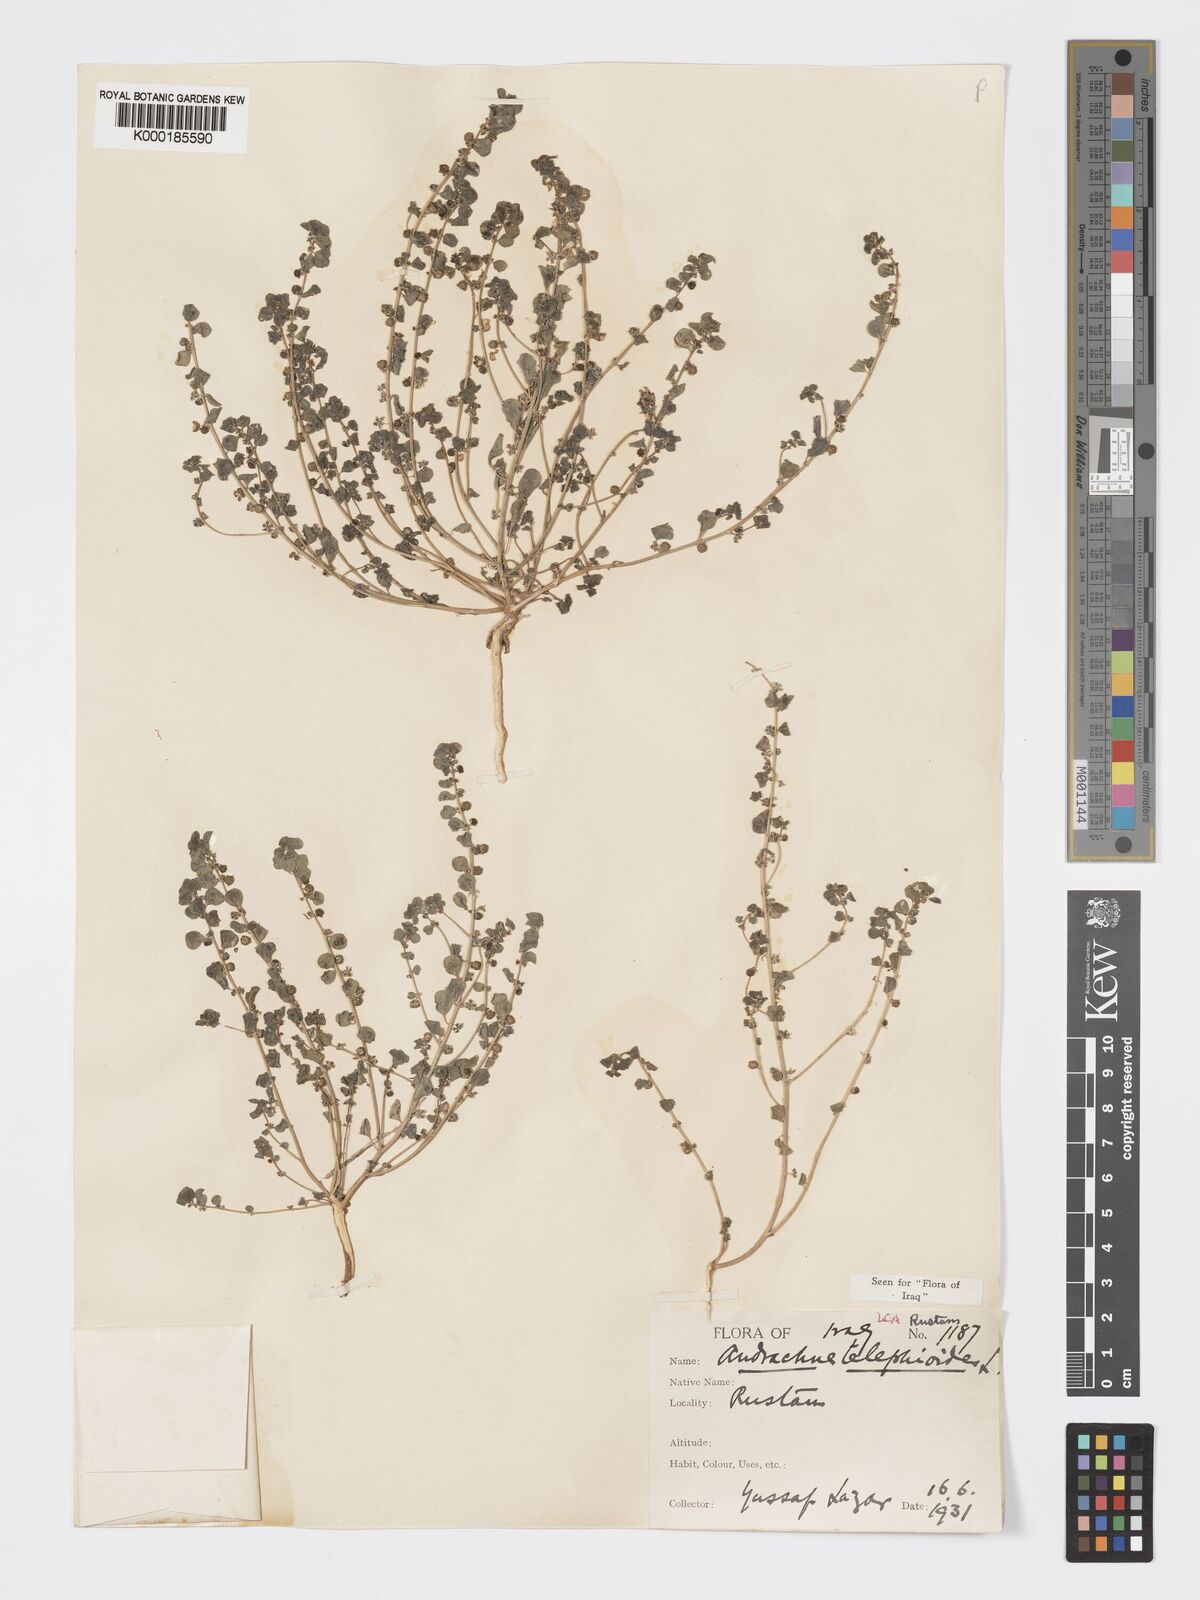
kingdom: Plantae
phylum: Tracheophyta
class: Magnoliopsida
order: Malpighiales
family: Phyllanthaceae
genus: Andrachne
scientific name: Andrachne telephioides
